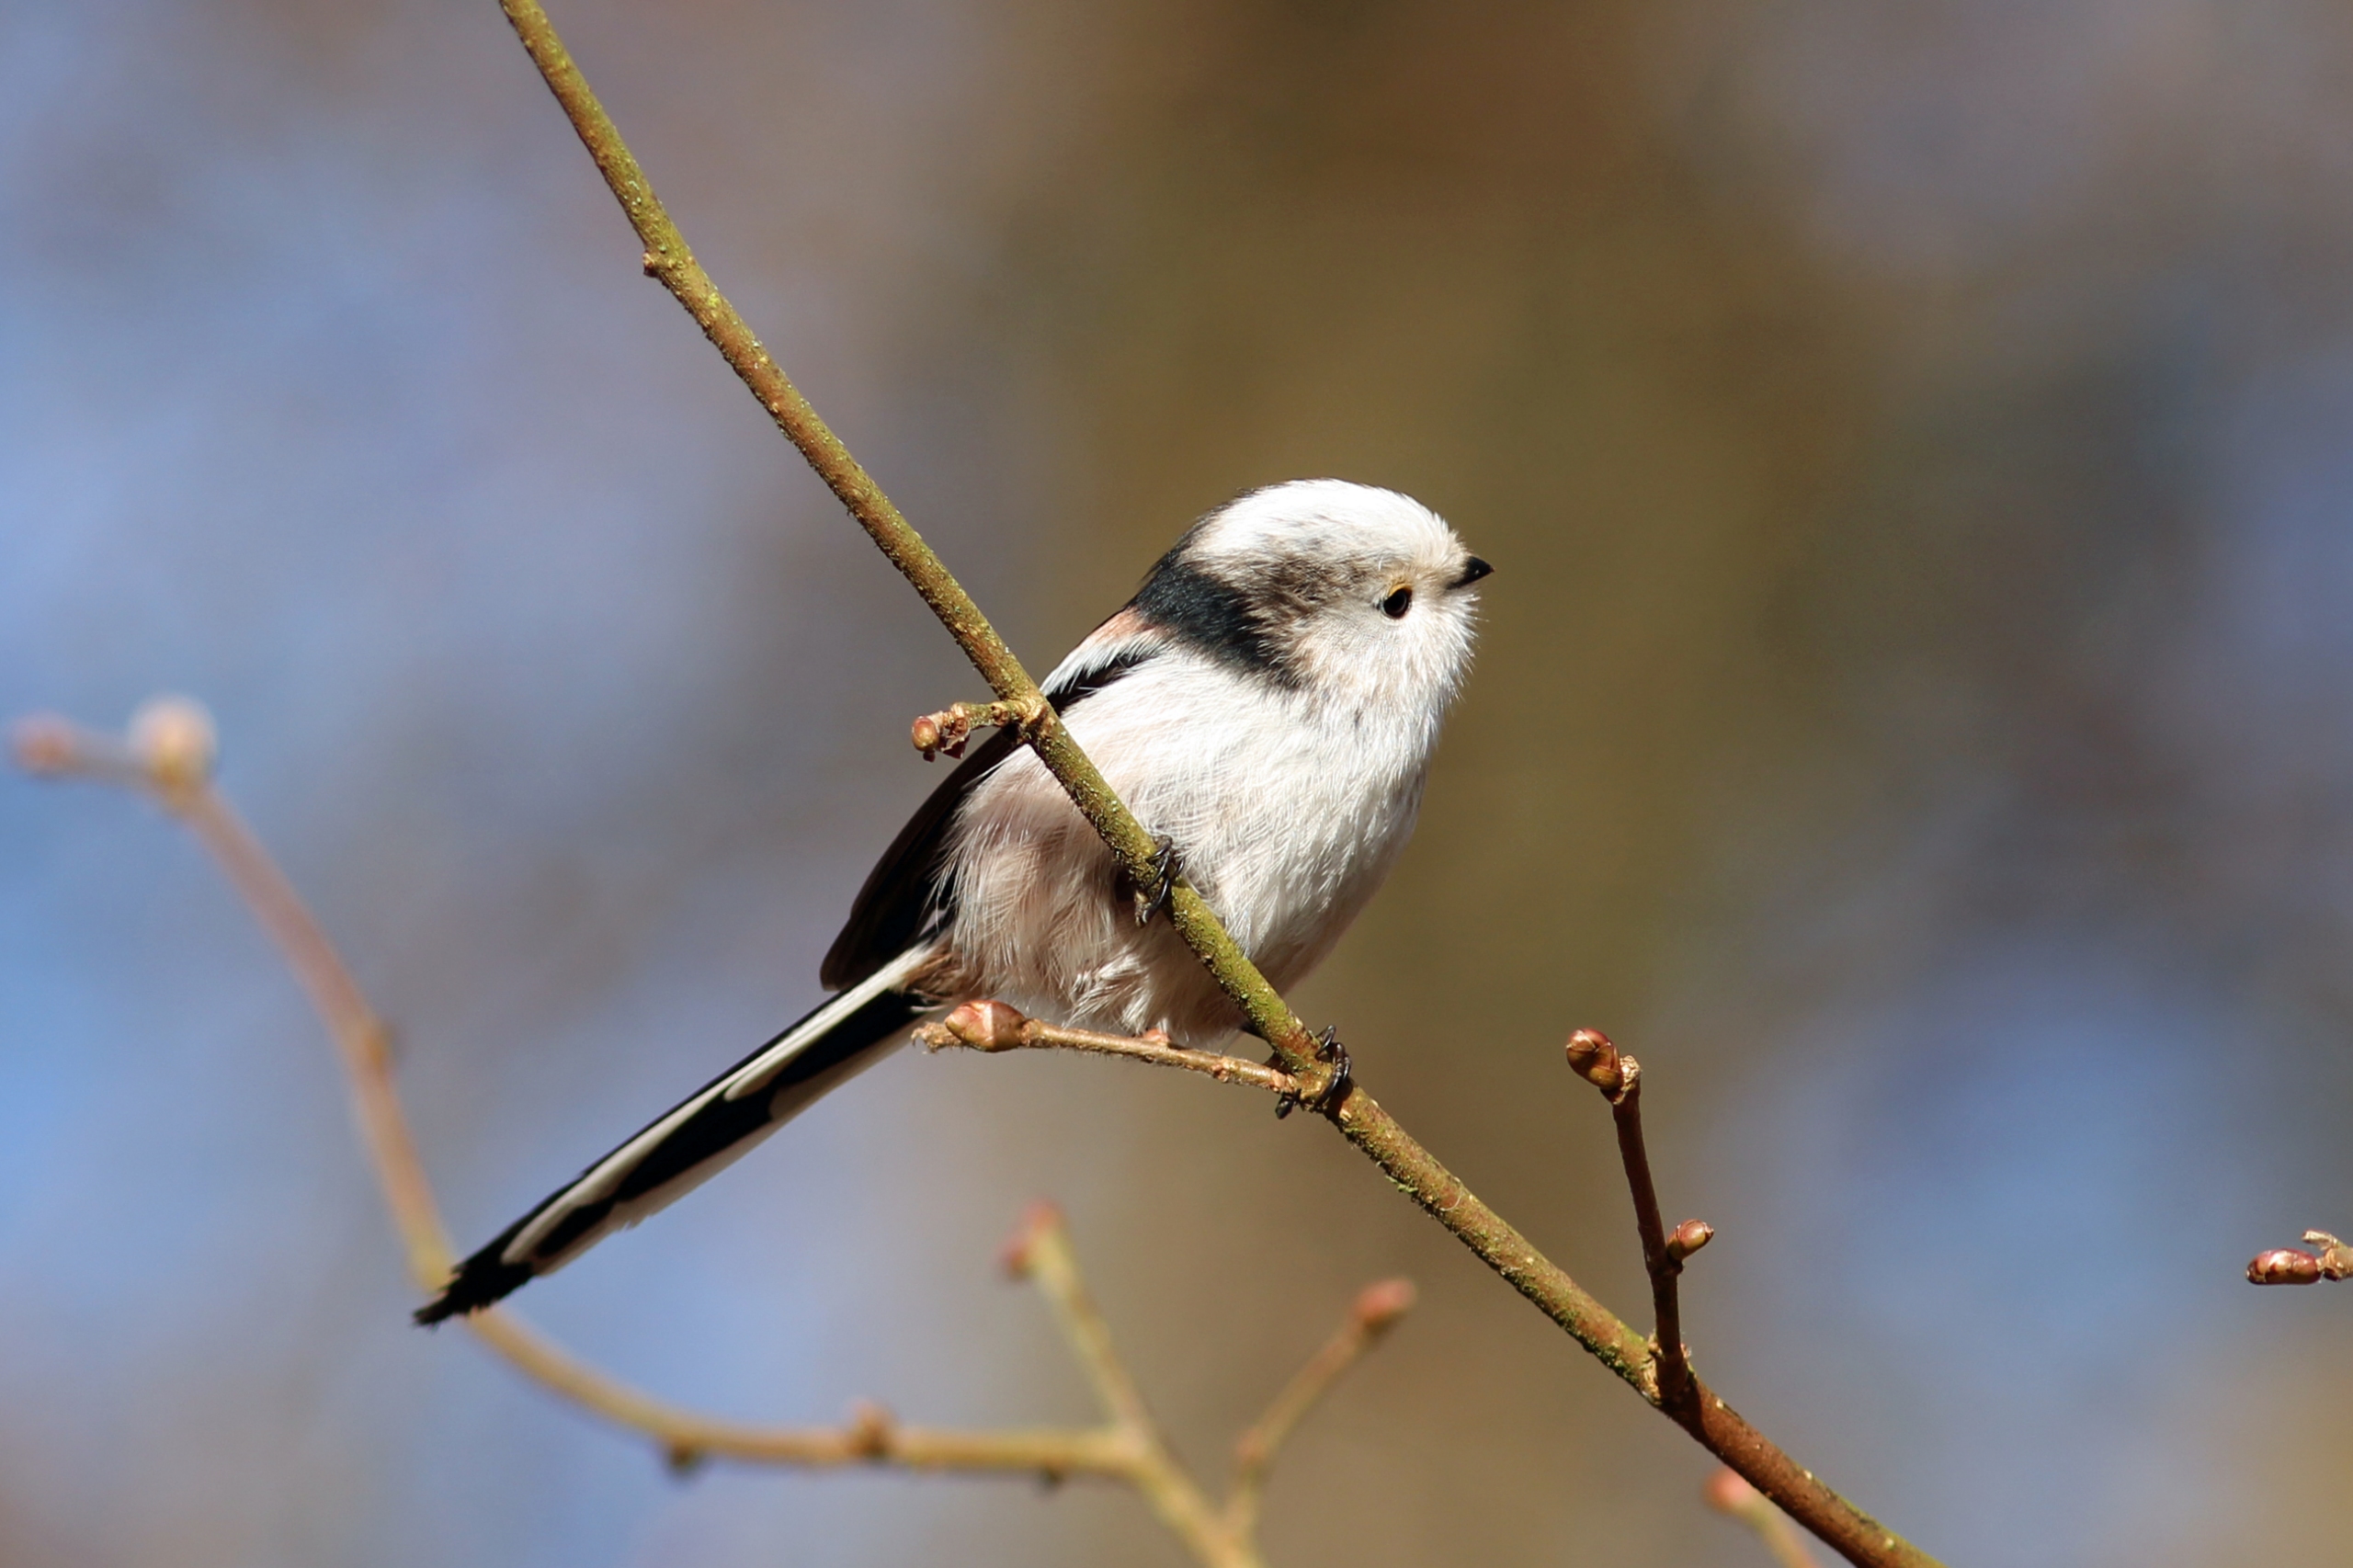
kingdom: Animalia
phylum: Chordata
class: Aves
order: Passeriformes
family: Aegithalidae
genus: Aegithalos
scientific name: Aegithalos caudatus
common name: Halemejse
